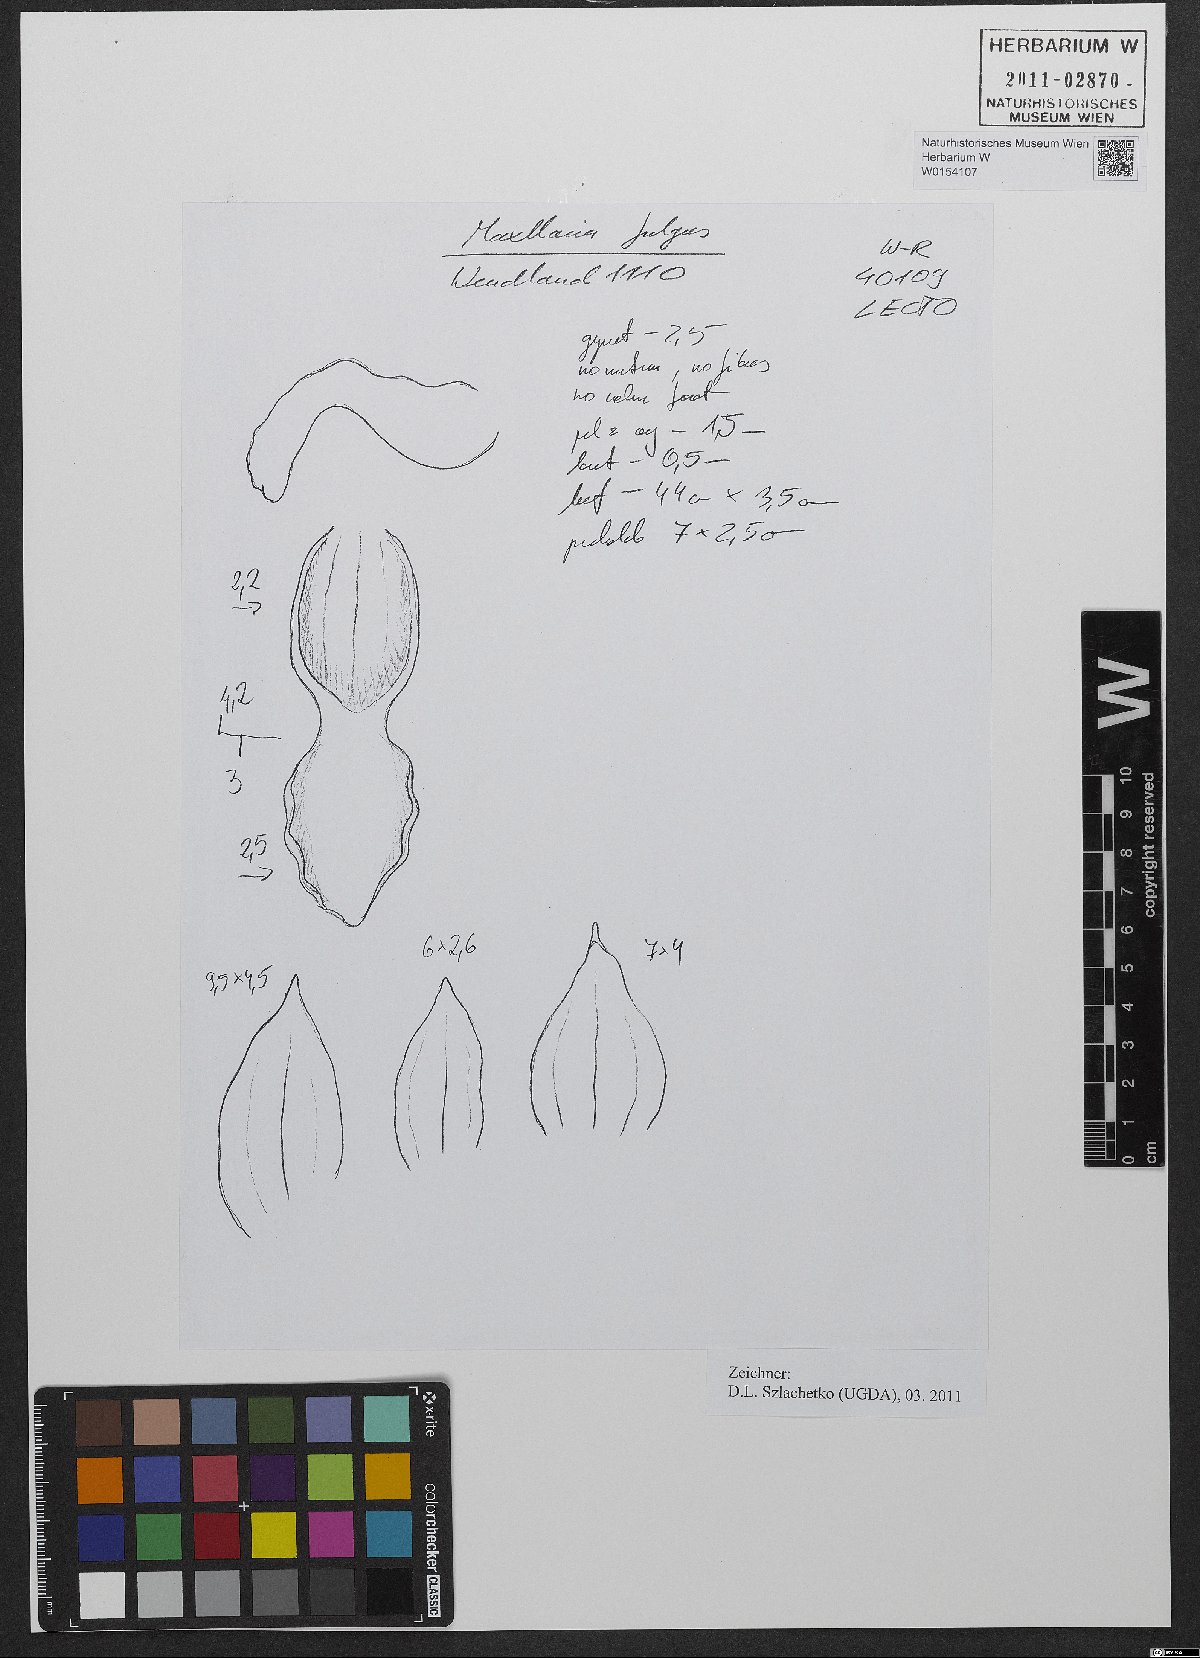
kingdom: Plantae
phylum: Tracheophyta
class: Liliopsida
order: Asparagales
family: Orchidaceae
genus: Maxillaria
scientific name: Maxillaria fulgens
